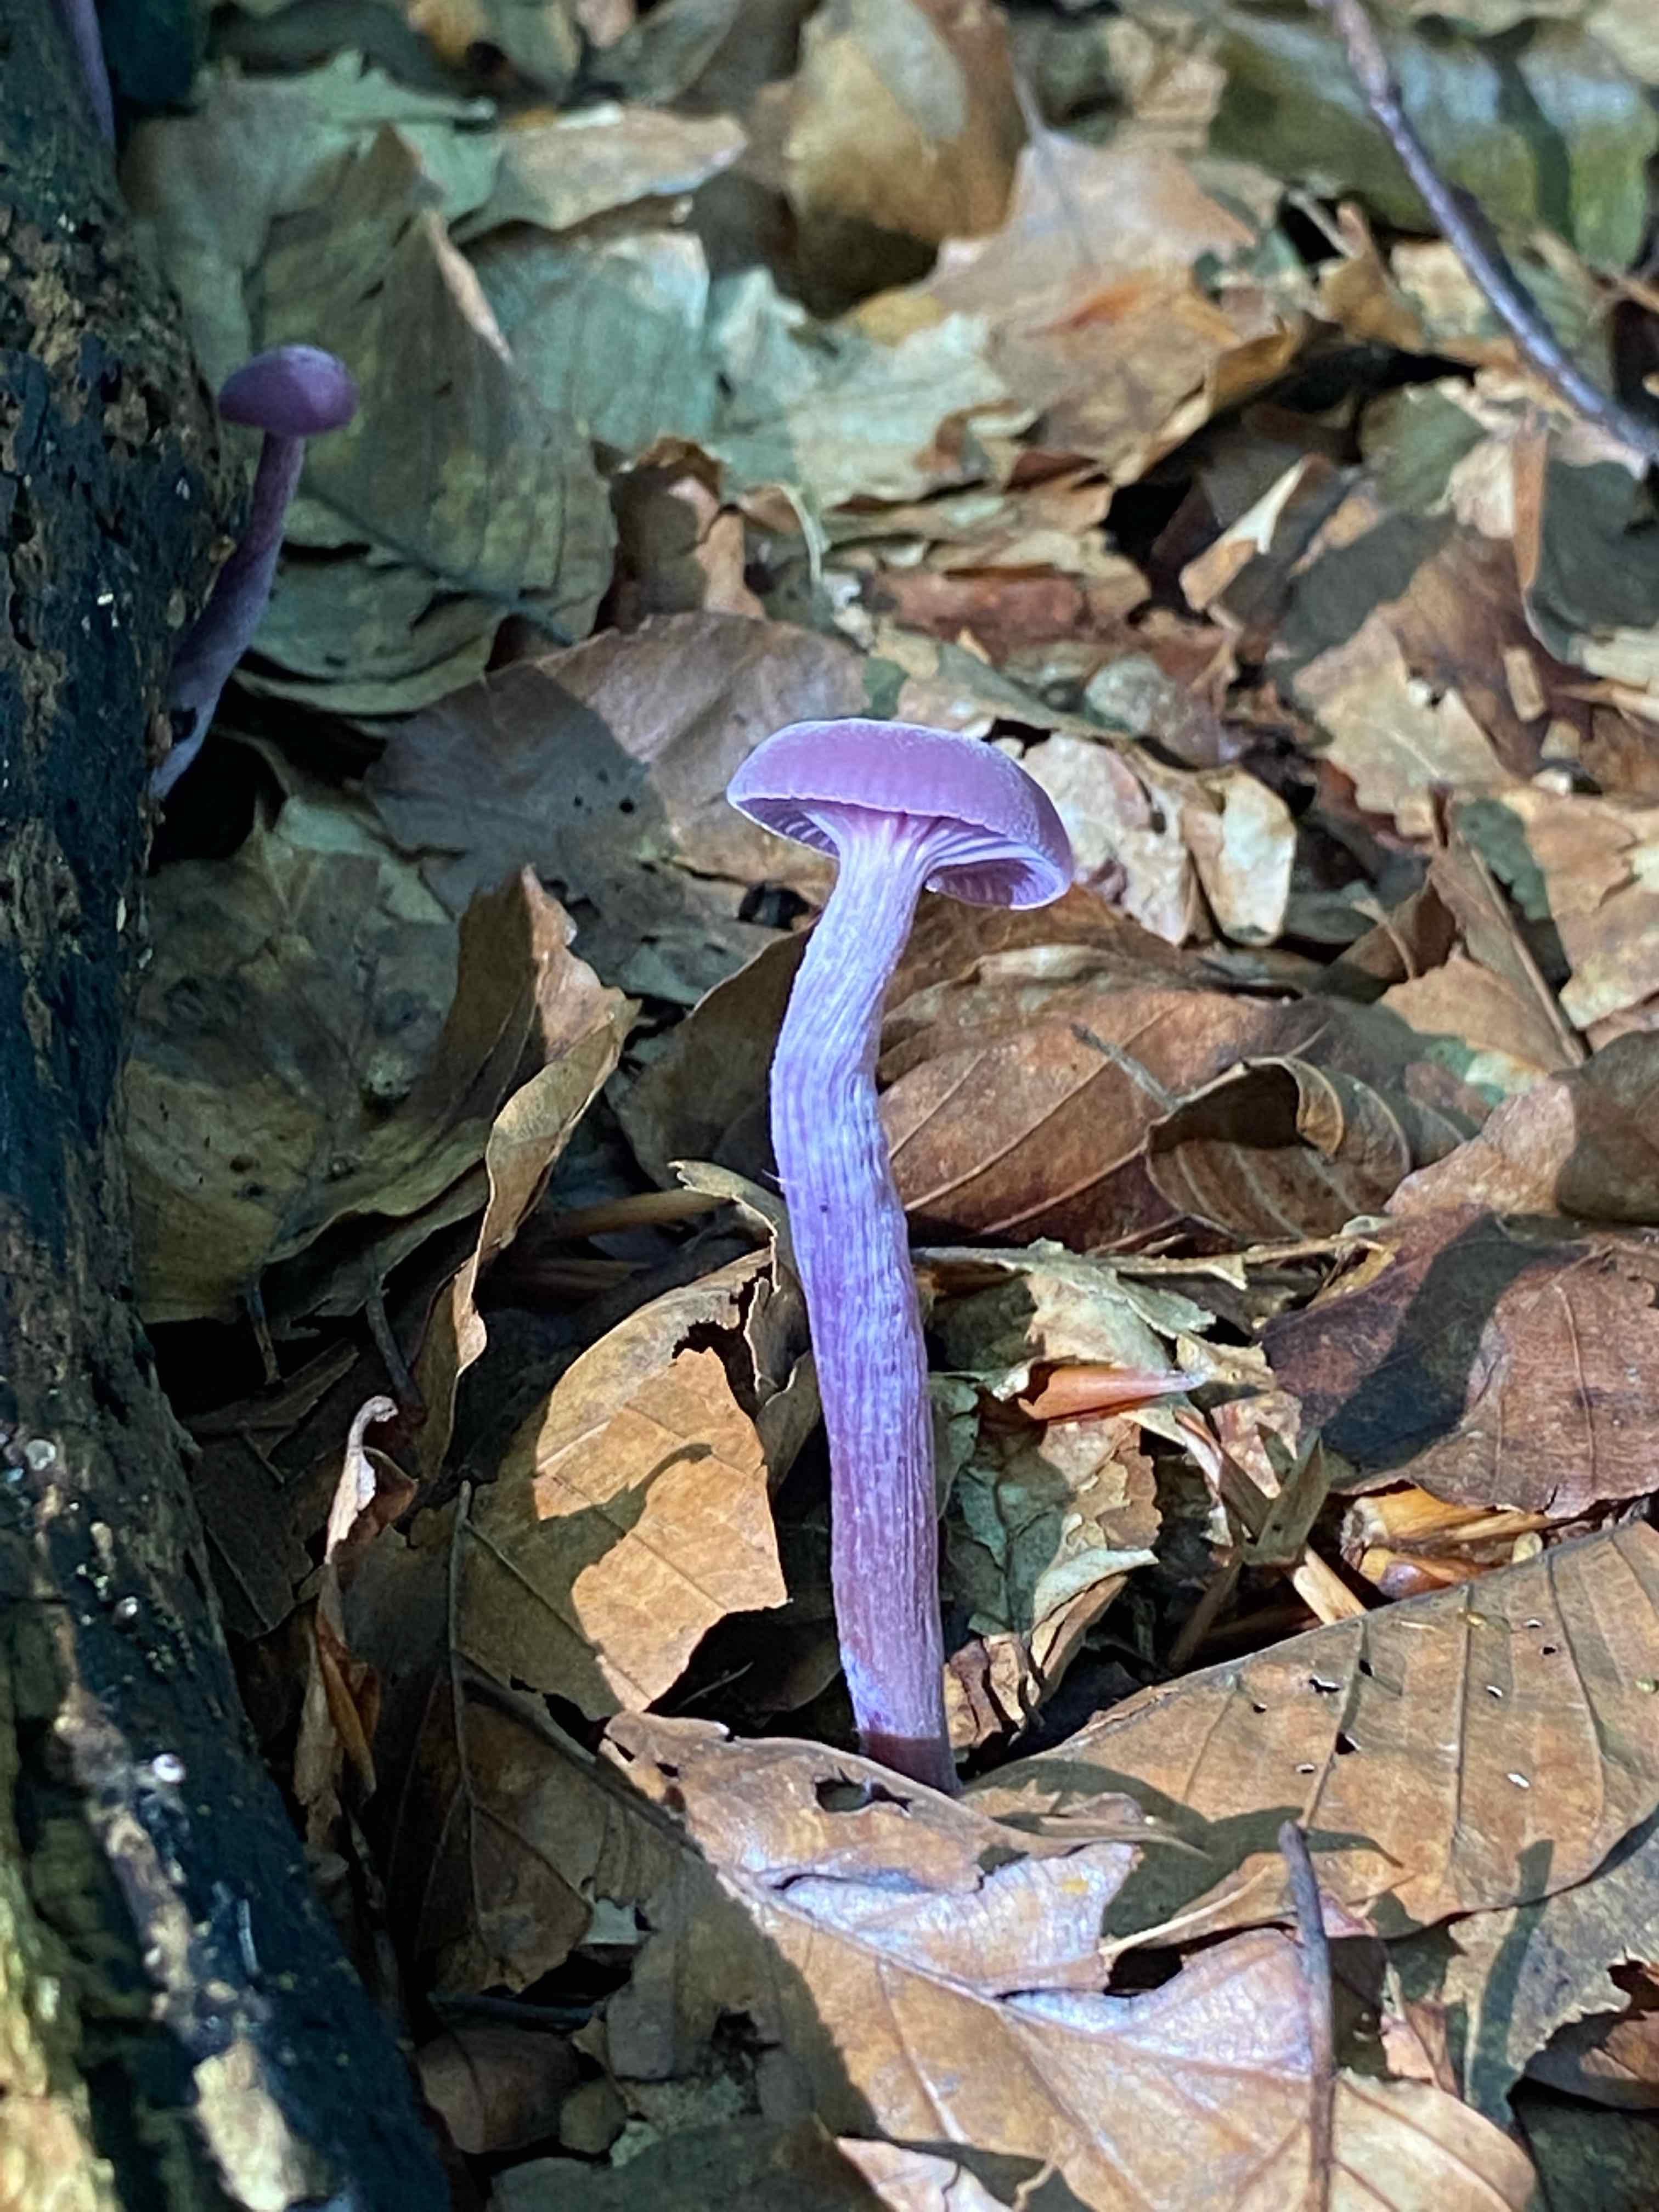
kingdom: Fungi
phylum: Basidiomycota
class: Agaricomycetes
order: Agaricales
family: Hydnangiaceae
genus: Laccaria
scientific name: Laccaria amethystina
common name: violet ametysthat
